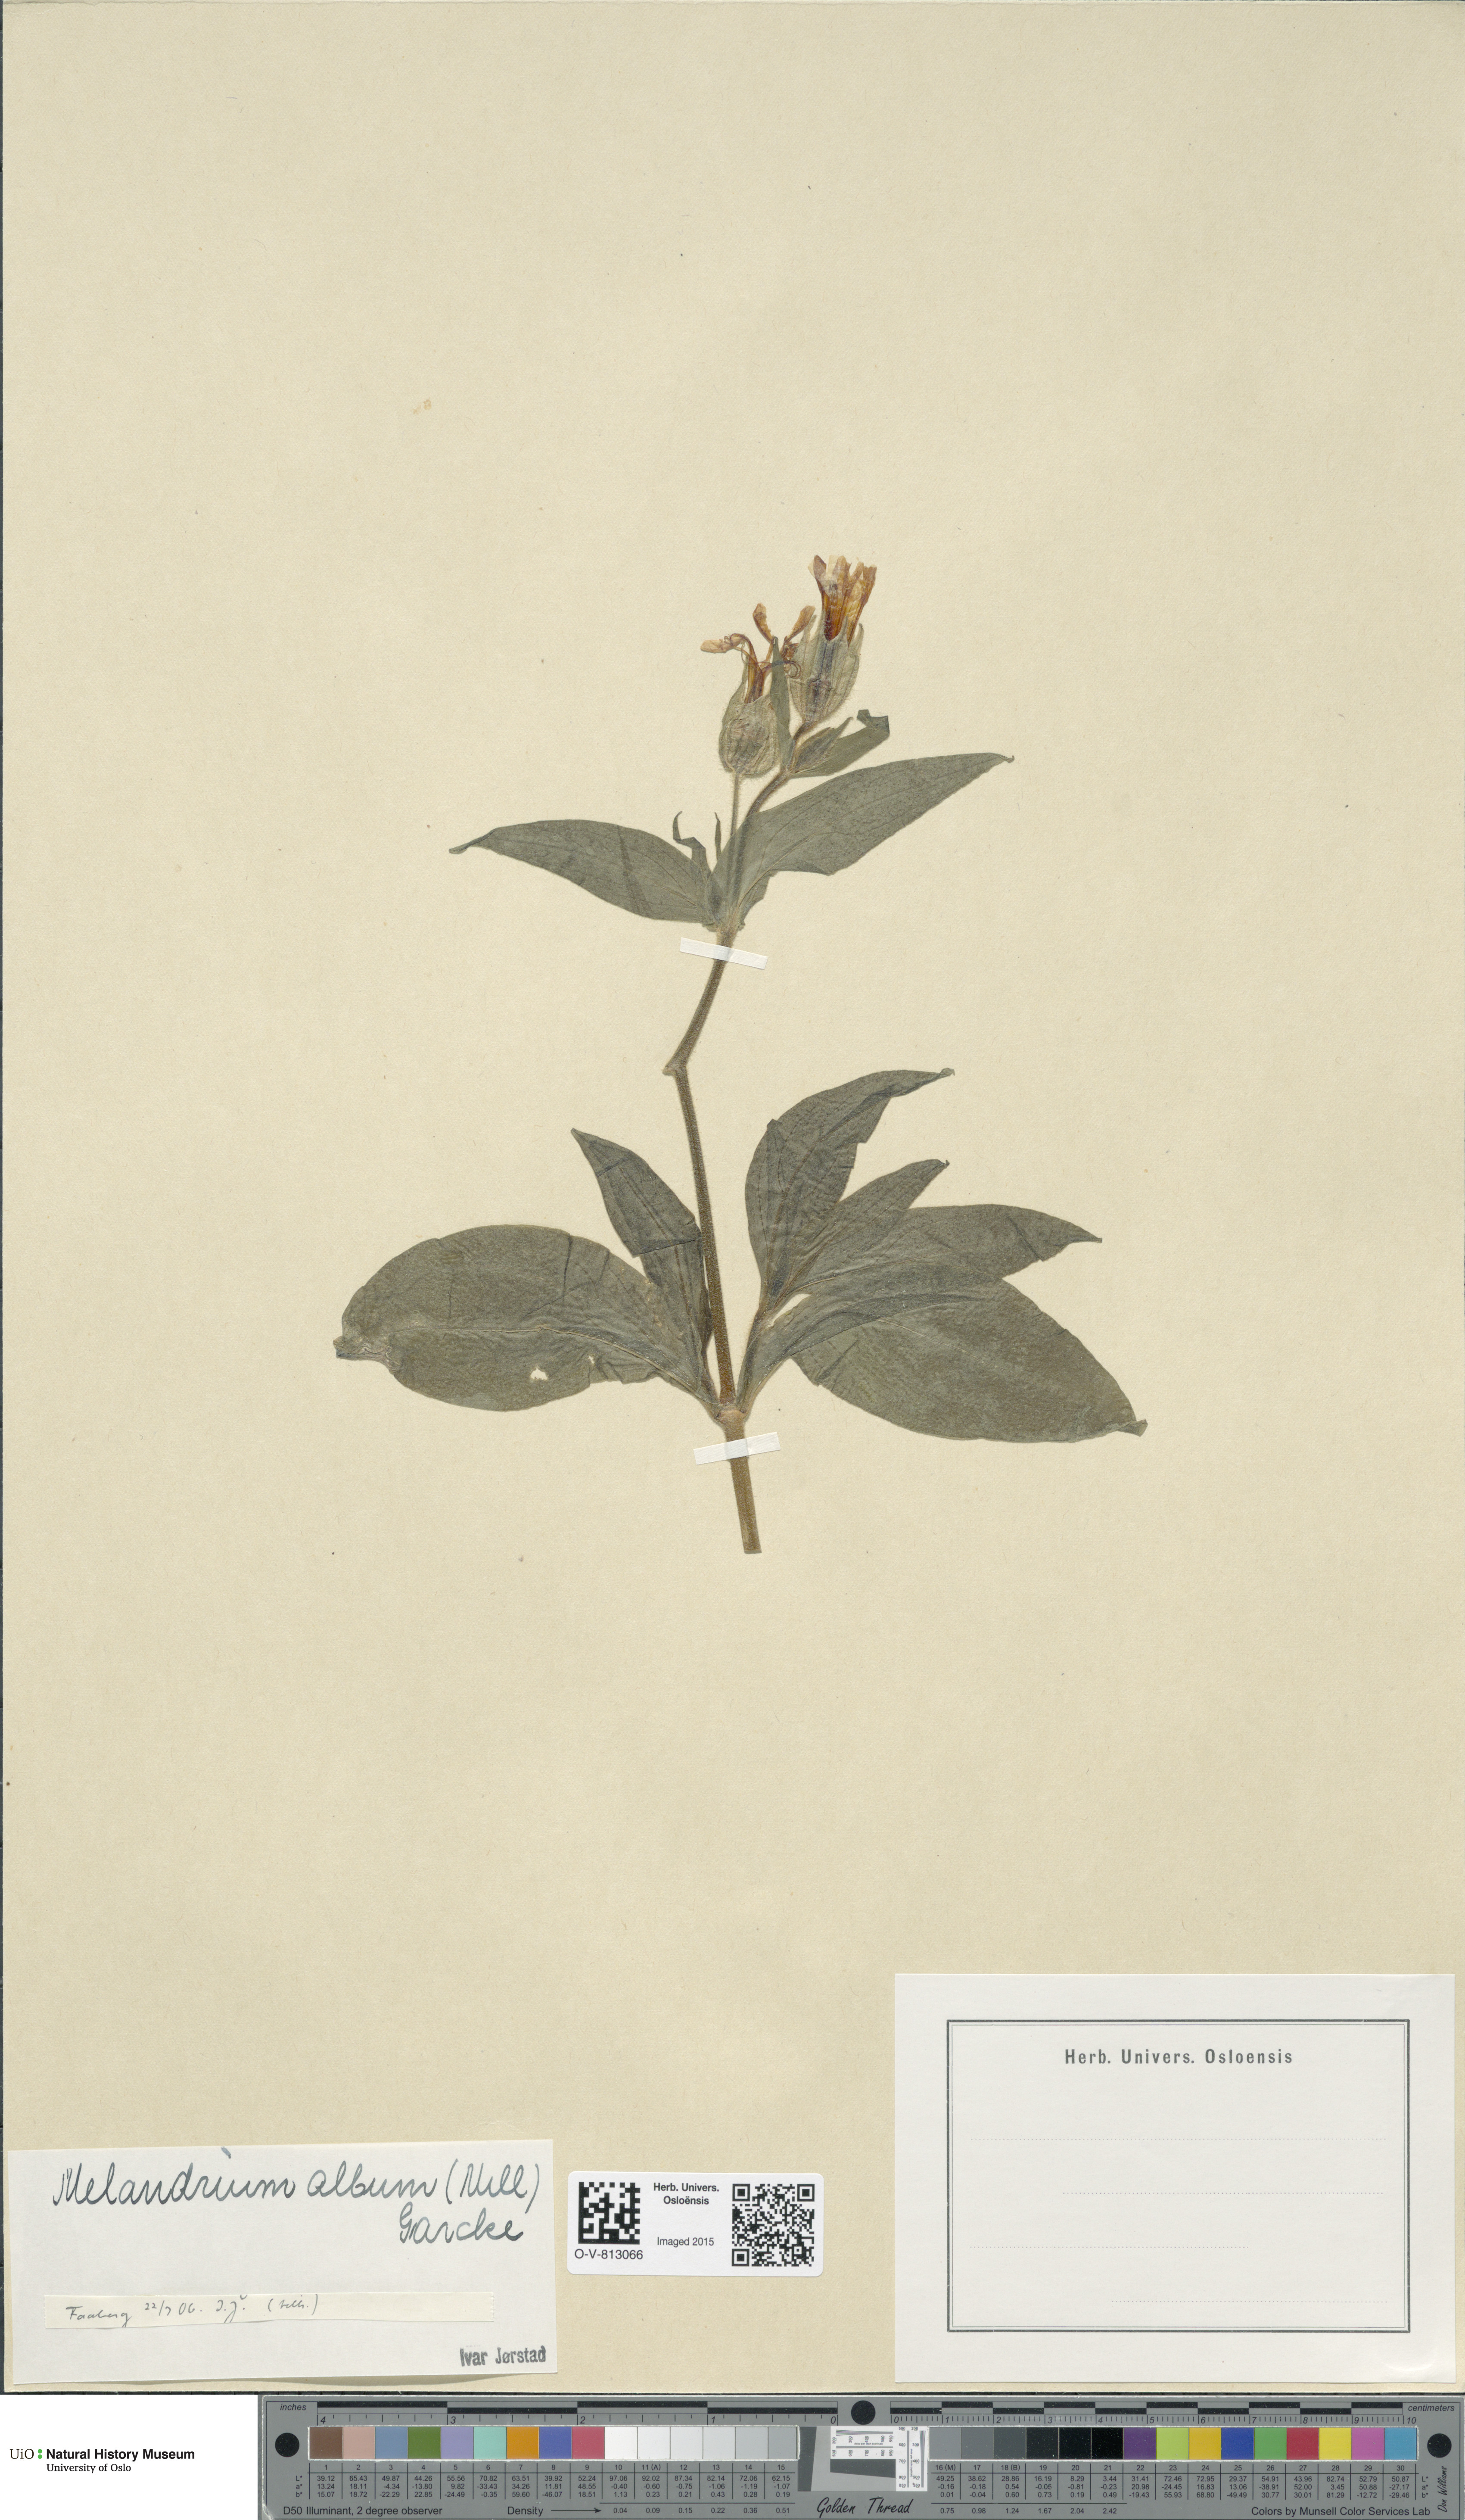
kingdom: Plantae
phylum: Tracheophyta
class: Magnoliopsida
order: Caryophyllales
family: Caryophyllaceae
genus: Silene
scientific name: Silene latifolia
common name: White campion
